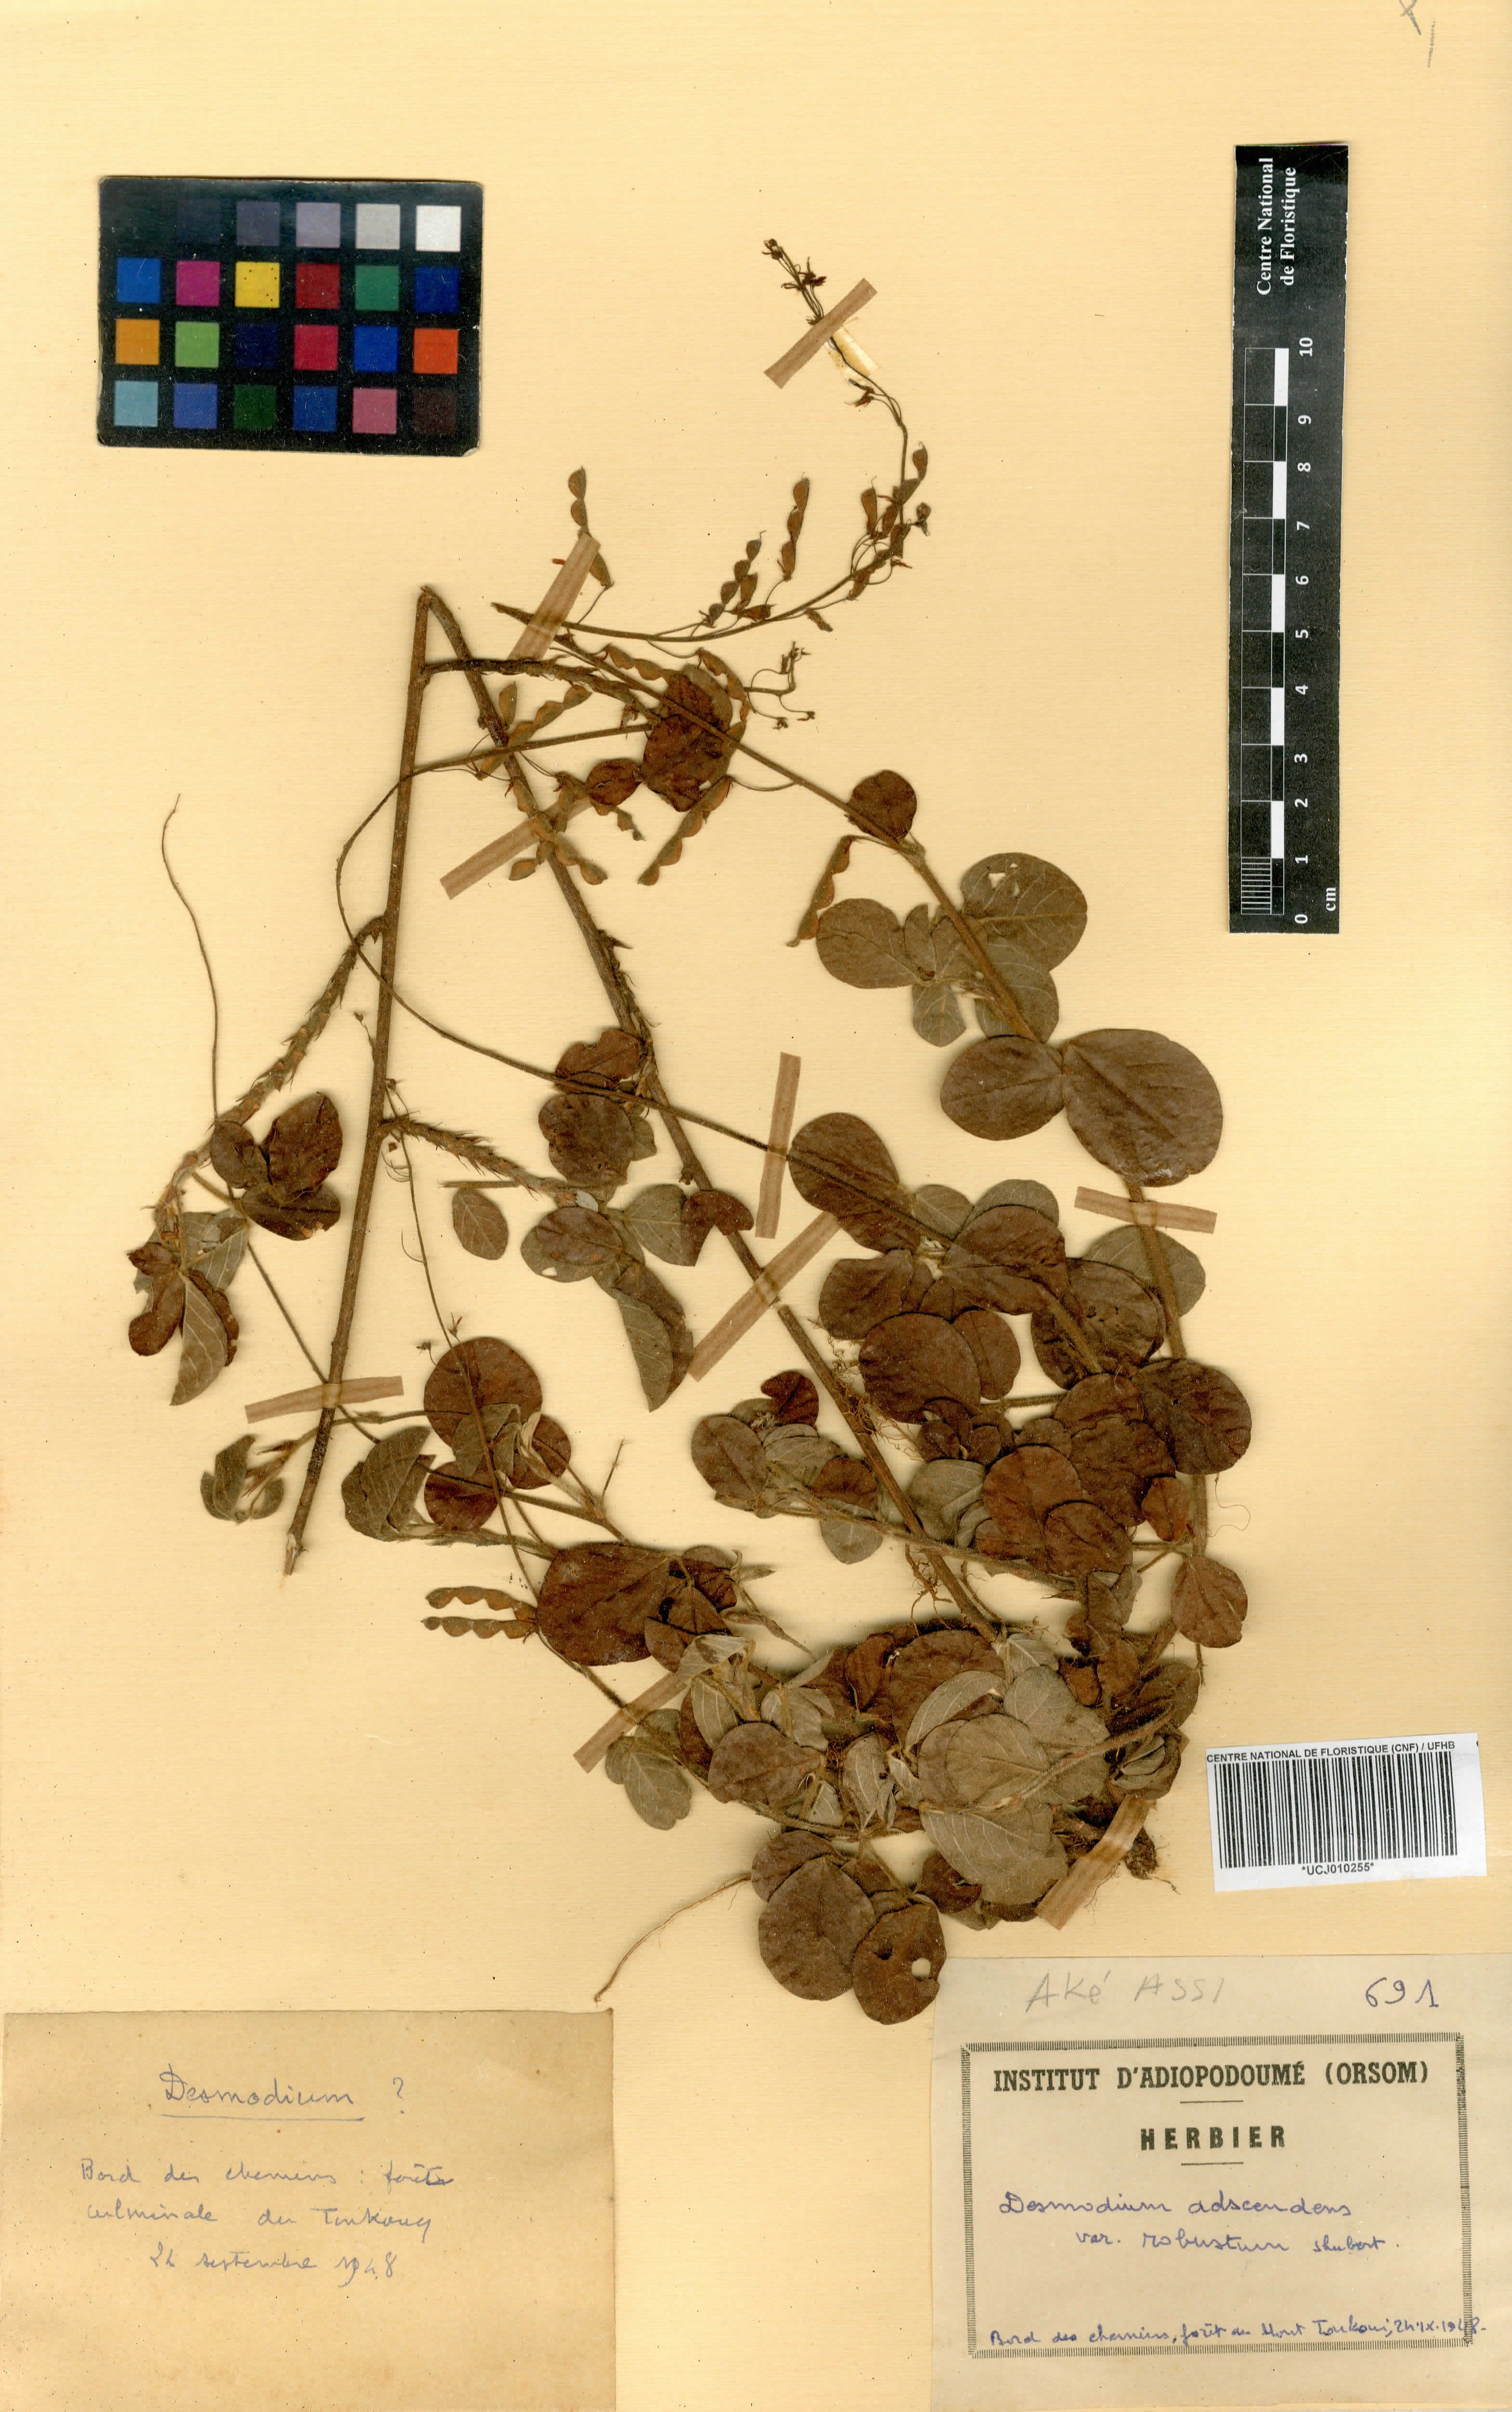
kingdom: Plantae
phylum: Tracheophyta
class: Magnoliopsida
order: Fabales
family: Fabaceae
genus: Grona
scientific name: Grona adscendens
